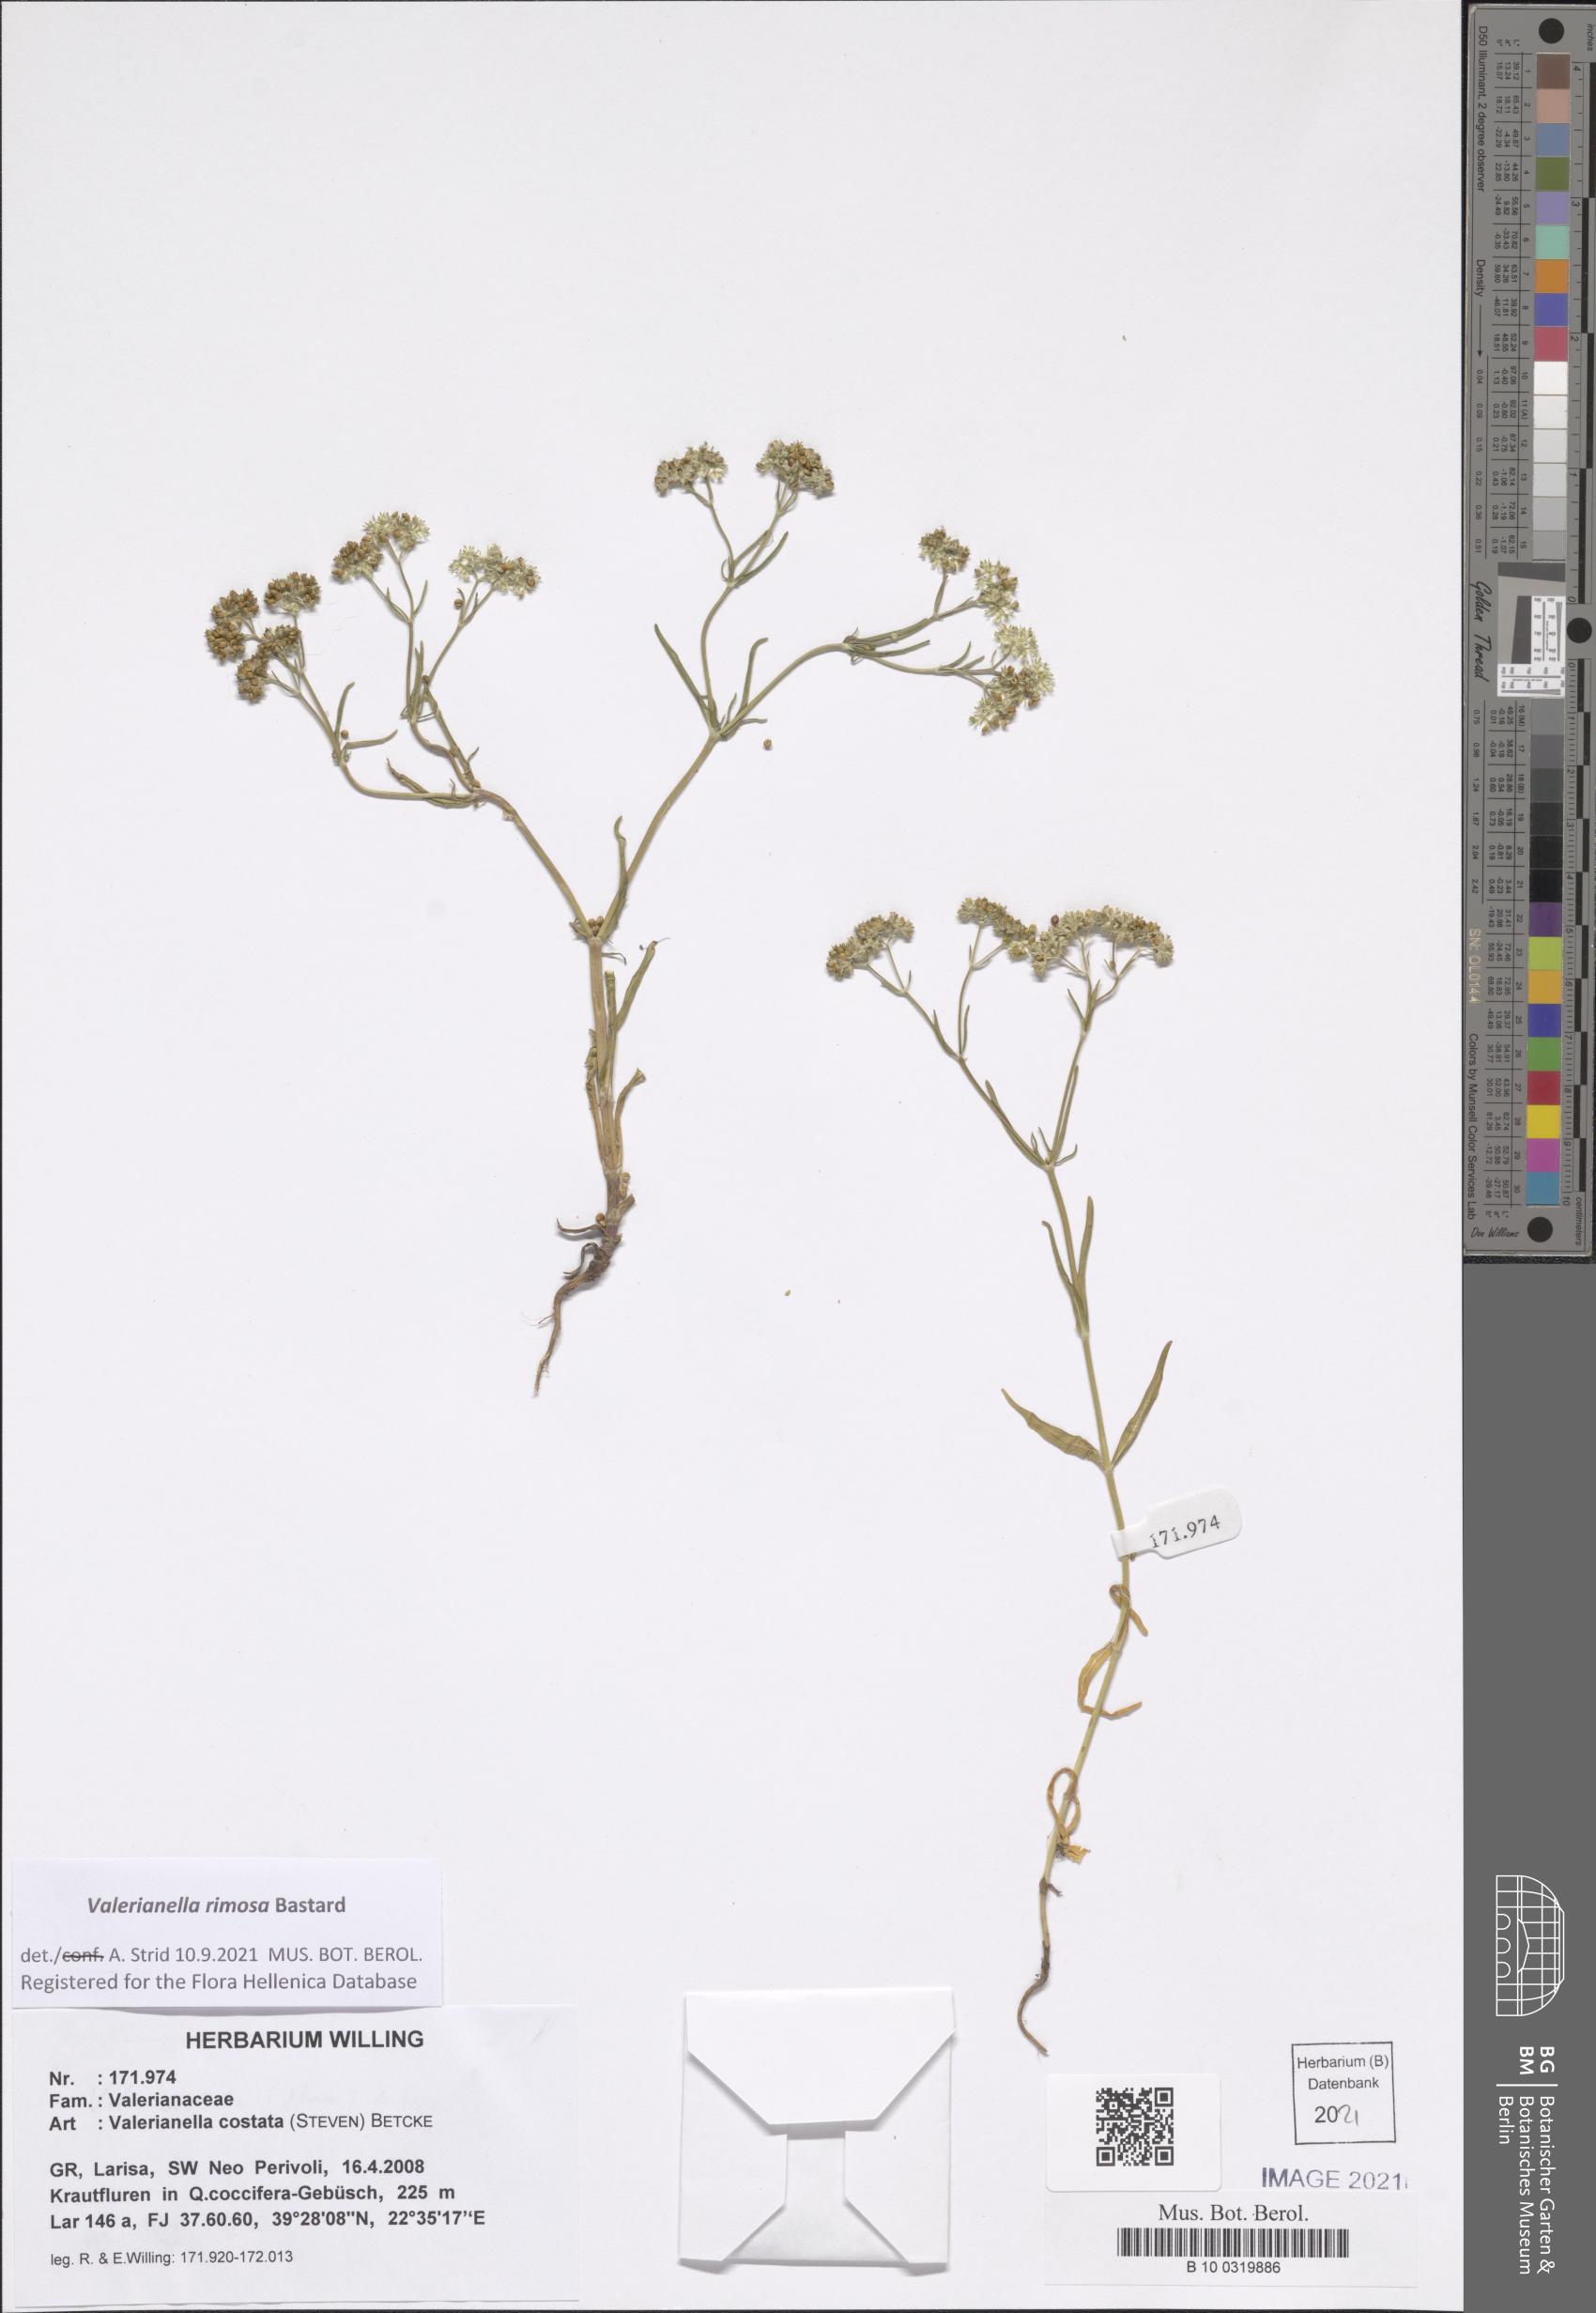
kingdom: Plantae
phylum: Tracheophyta
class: Magnoliopsida
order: Dipsacales
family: Caprifoliaceae
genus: Valerianella
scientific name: Valerianella rimosa
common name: Broad-fruited cornsalad
